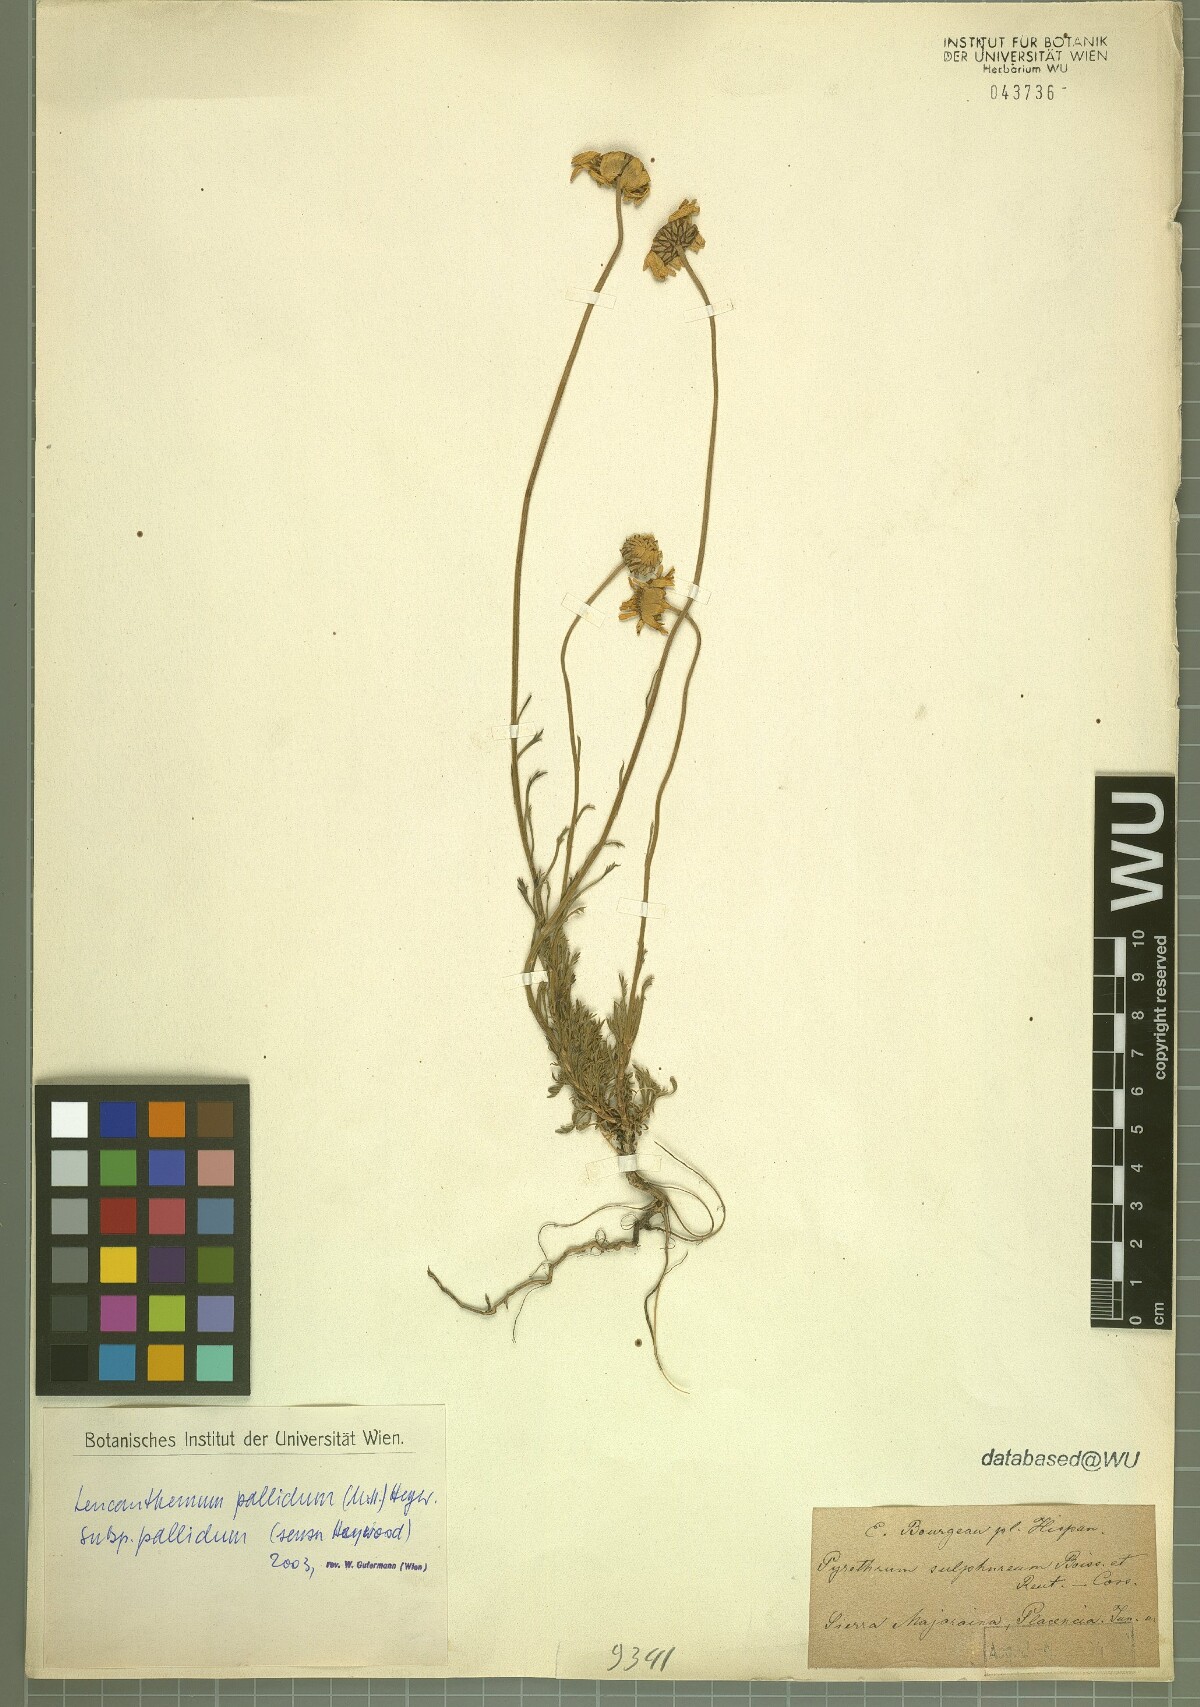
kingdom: Plantae
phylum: Tracheophyta
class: Magnoliopsida
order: Asterales
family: Asteraceae
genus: Leucanthemopsis
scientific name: Leucanthemopsis pallida
